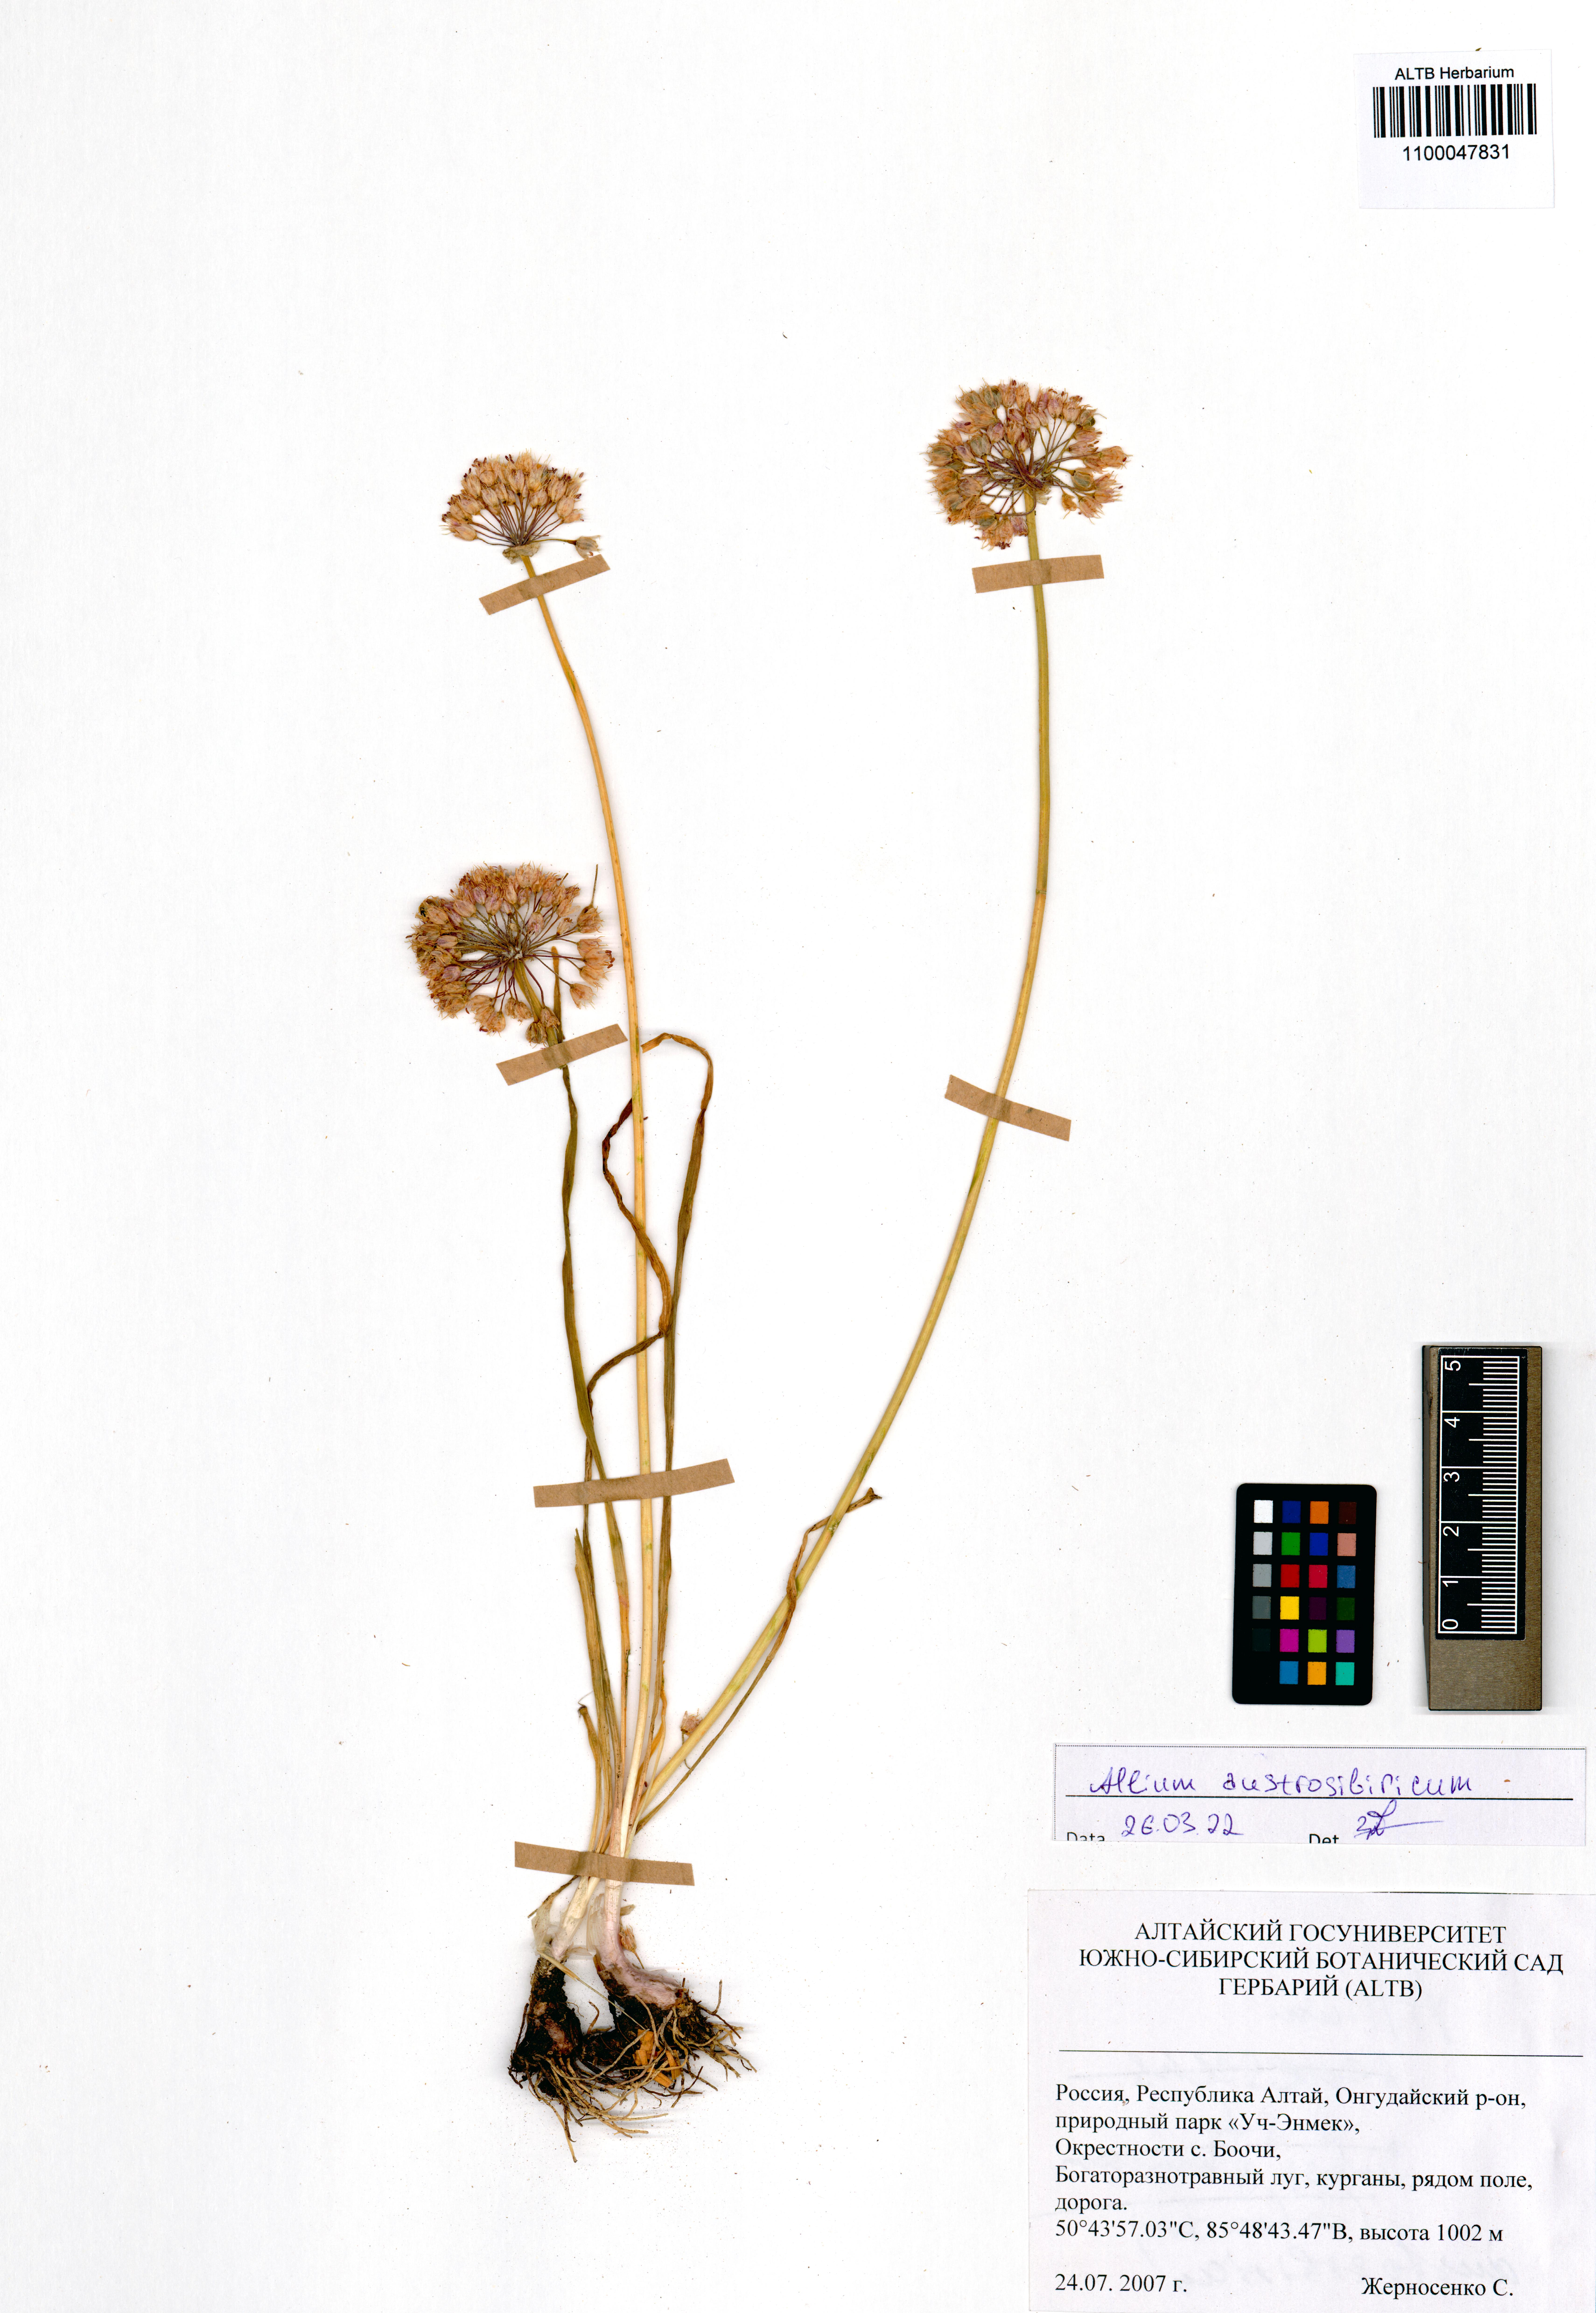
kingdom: Plantae
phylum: Tracheophyta
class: Liliopsida
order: Asparagales
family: Amaryllidaceae
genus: Allium
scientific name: Allium austrosibiricum
